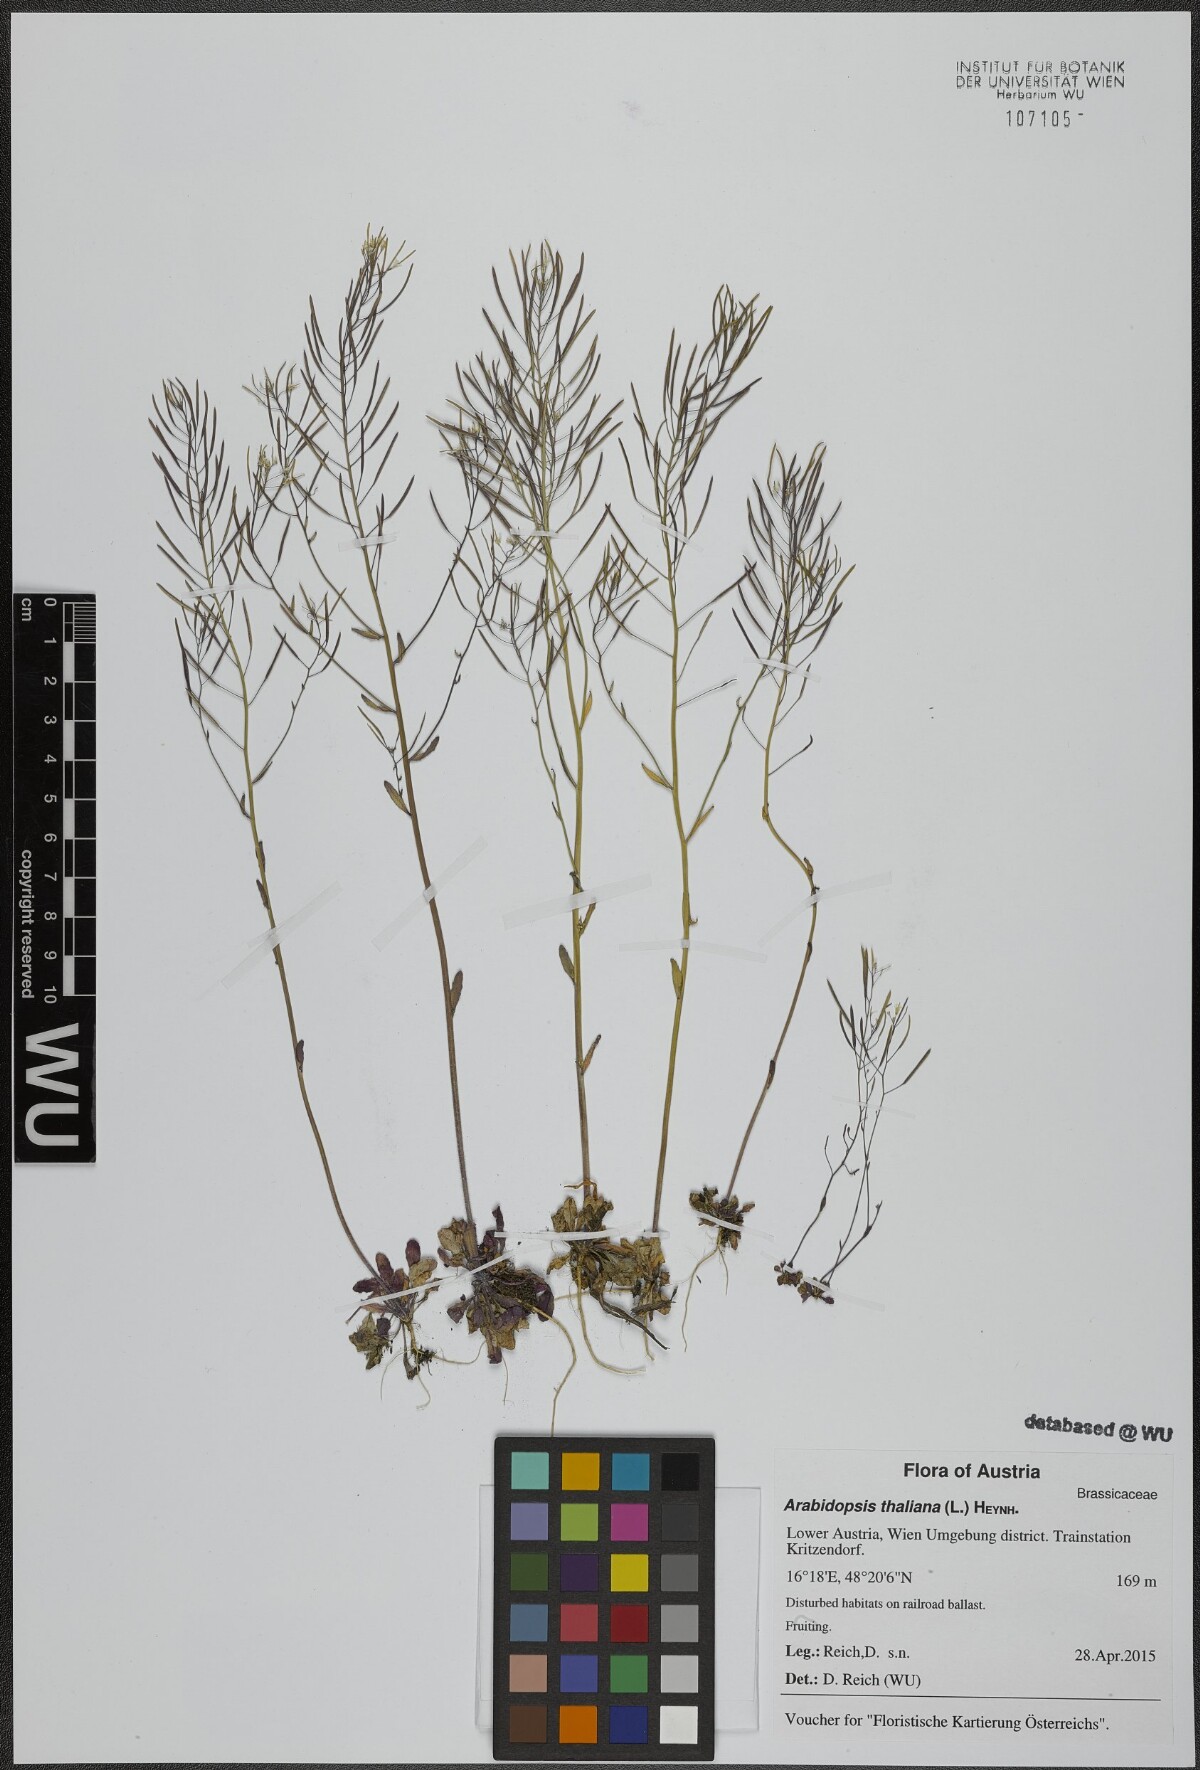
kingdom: Plantae
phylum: Tracheophyta
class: Magnoliopsida
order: Brassicales
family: Brassicaceae
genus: Arabidopsis
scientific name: Arabidopsis thaliana
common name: Thale cress
